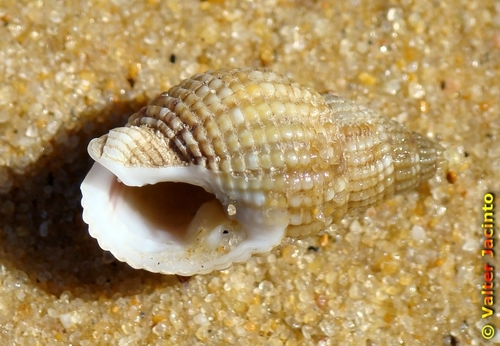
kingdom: Animalia
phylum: Mollusca
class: Gastropoda
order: Neogastropoda
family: Nassariidae
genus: Tritia
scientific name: Tritia reticulata
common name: Netted dog whelk
